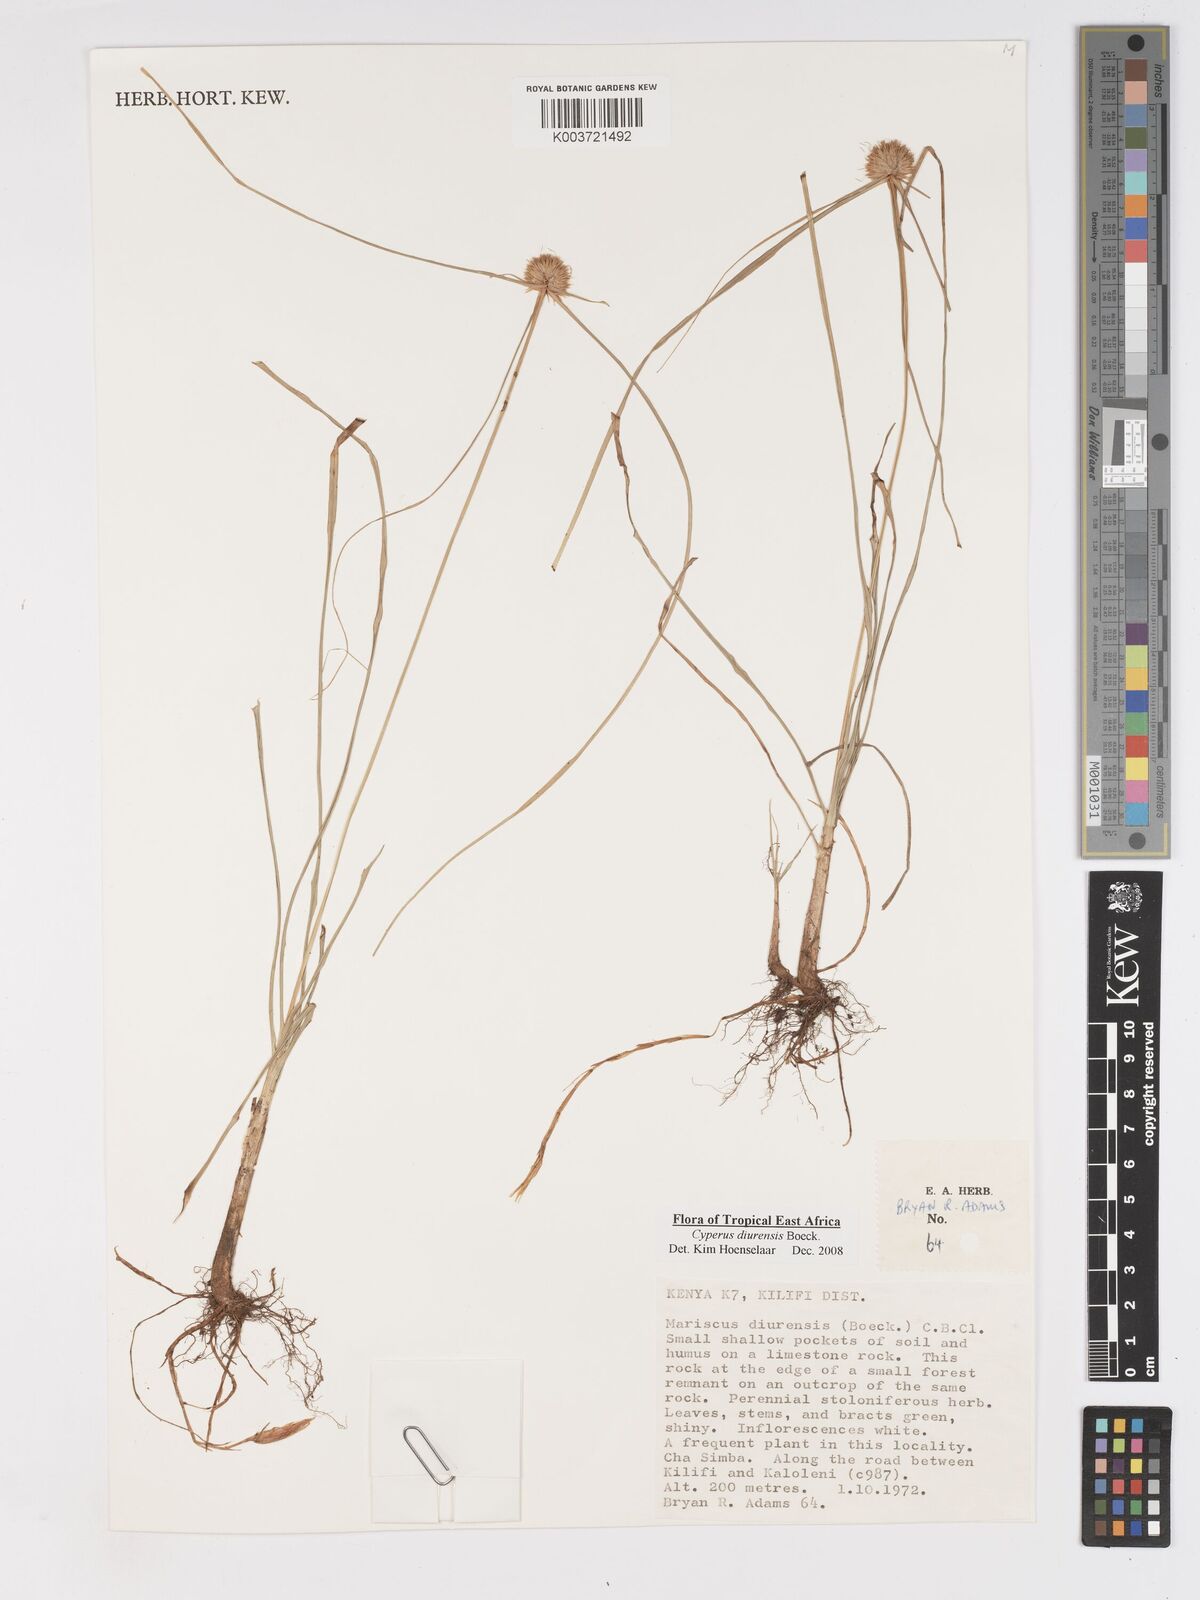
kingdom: Plantae
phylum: Tracheophyta
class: Liliopsida
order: Poales
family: Cyperaceae
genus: Cyperus
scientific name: Cyperus diurensis
